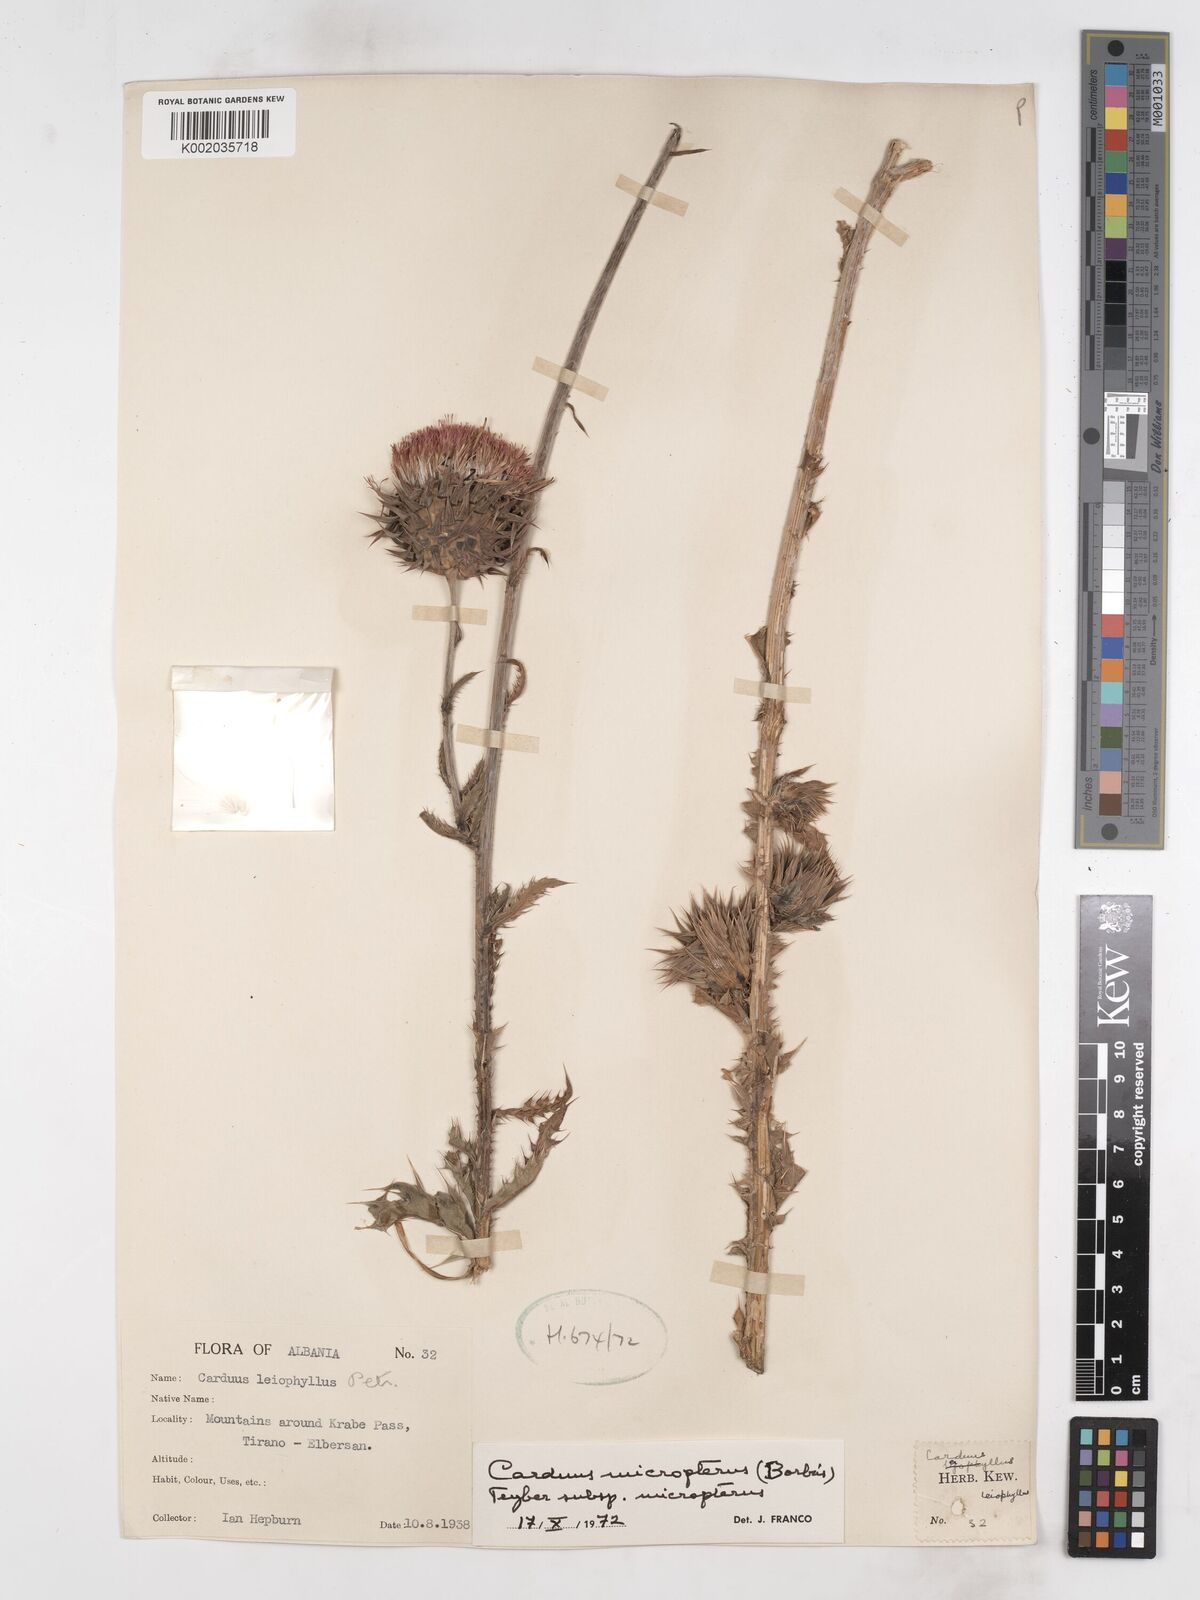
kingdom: Plantae
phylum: Tracheophyta
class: Magnoliopsida
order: Asterales
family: Asteraceae
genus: Carduus
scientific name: Carduus nutans
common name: Musk thistle
